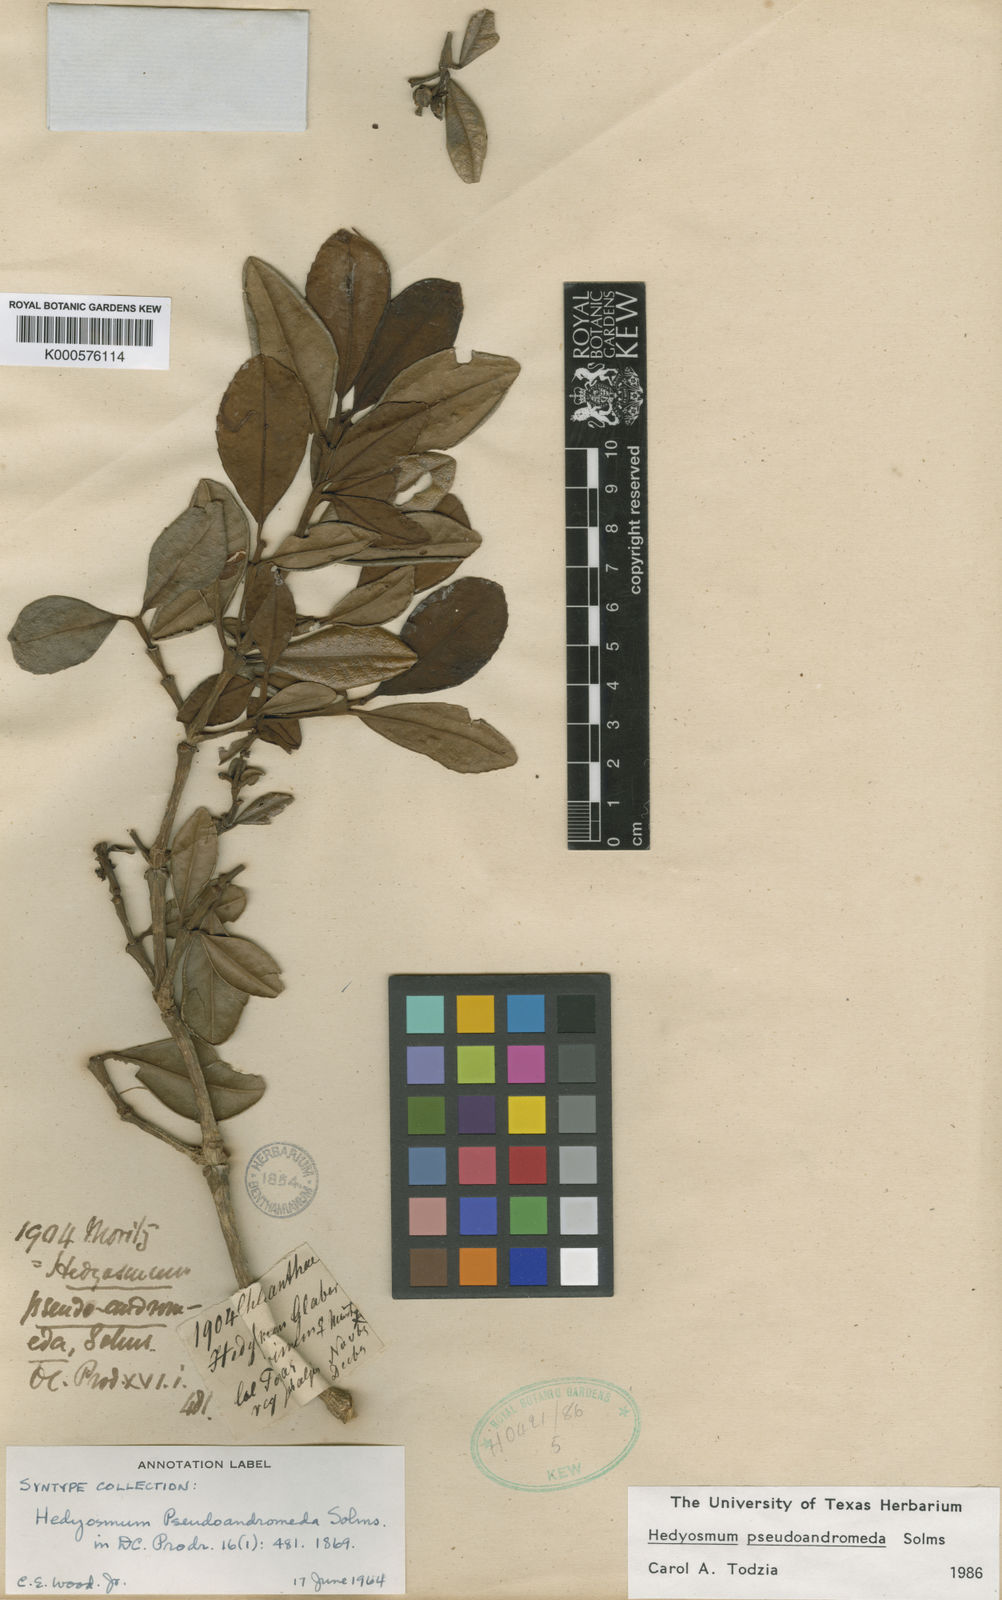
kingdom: Plantae
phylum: Tracheophyta
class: Magnoliopsida
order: Chloranthales
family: Chloranthaceae
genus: Hedyosmum
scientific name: Hedyosmum pseudoandromeda
